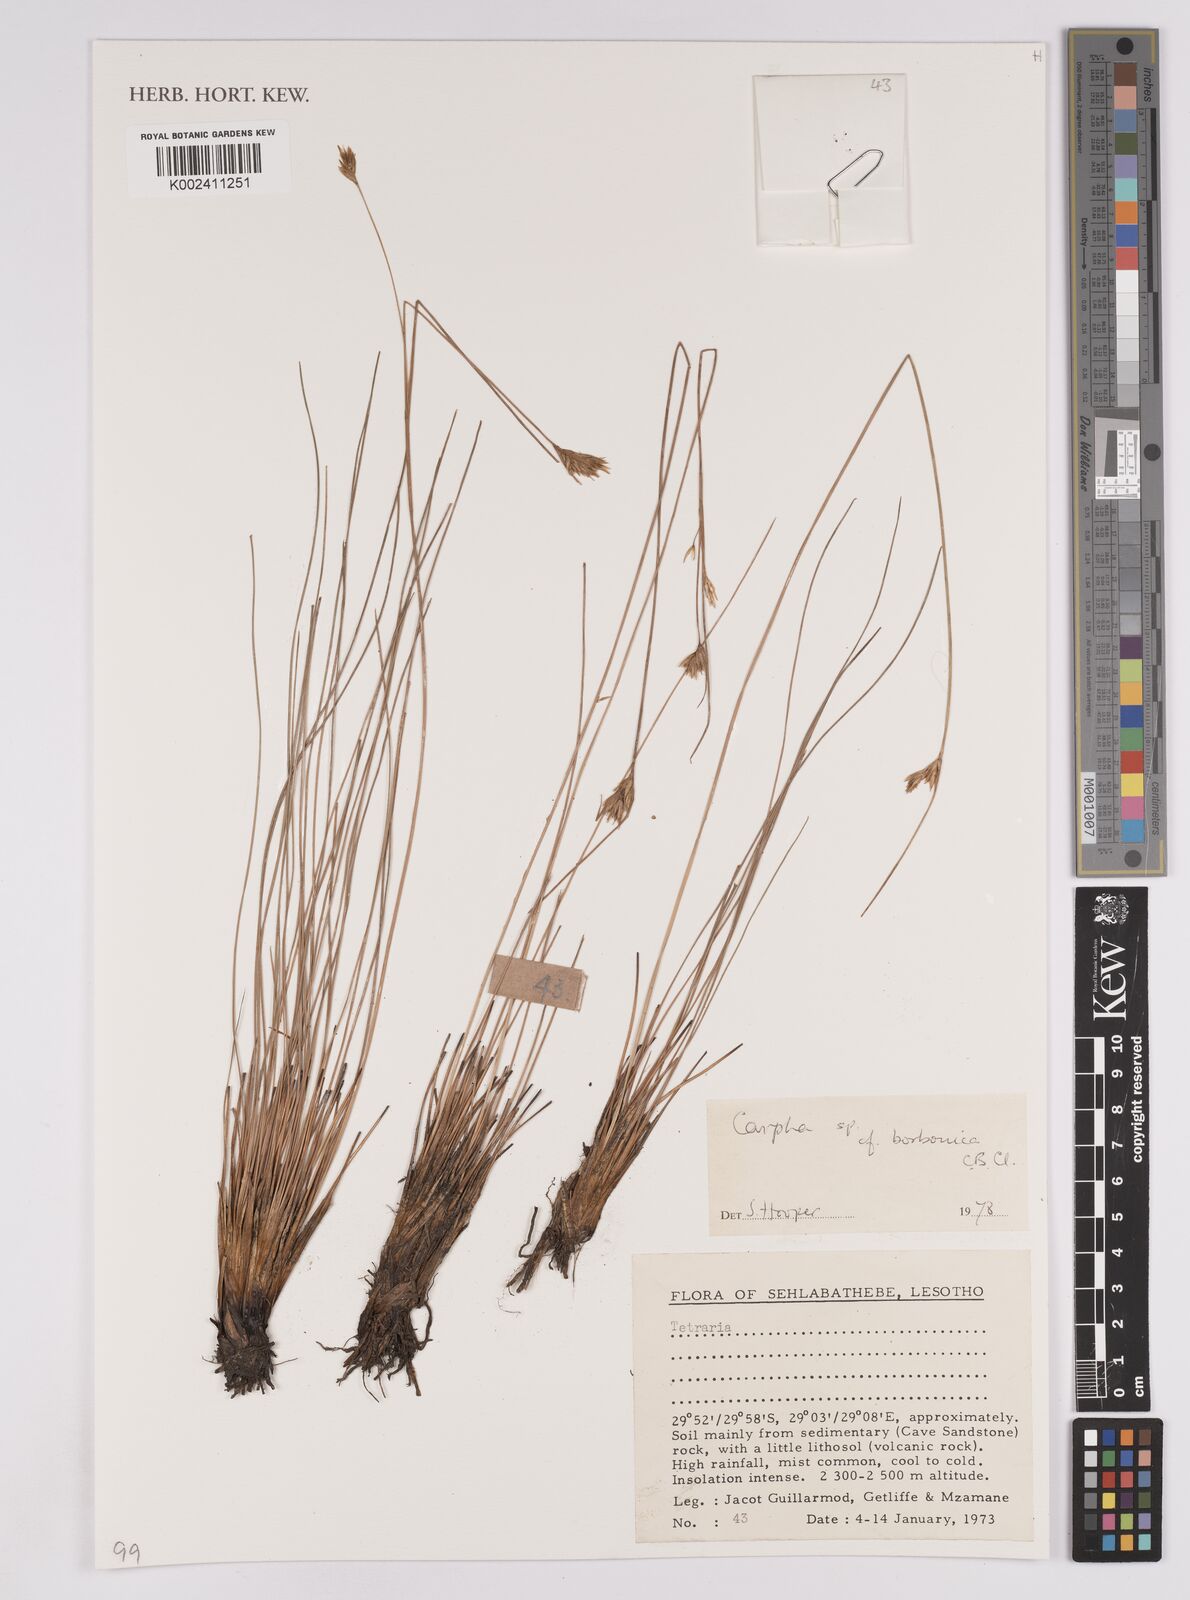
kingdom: Plantae
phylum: Tracheophyta
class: Liliopsida
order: Poales
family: Cyperaceae
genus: Carpha
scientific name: Carpha
